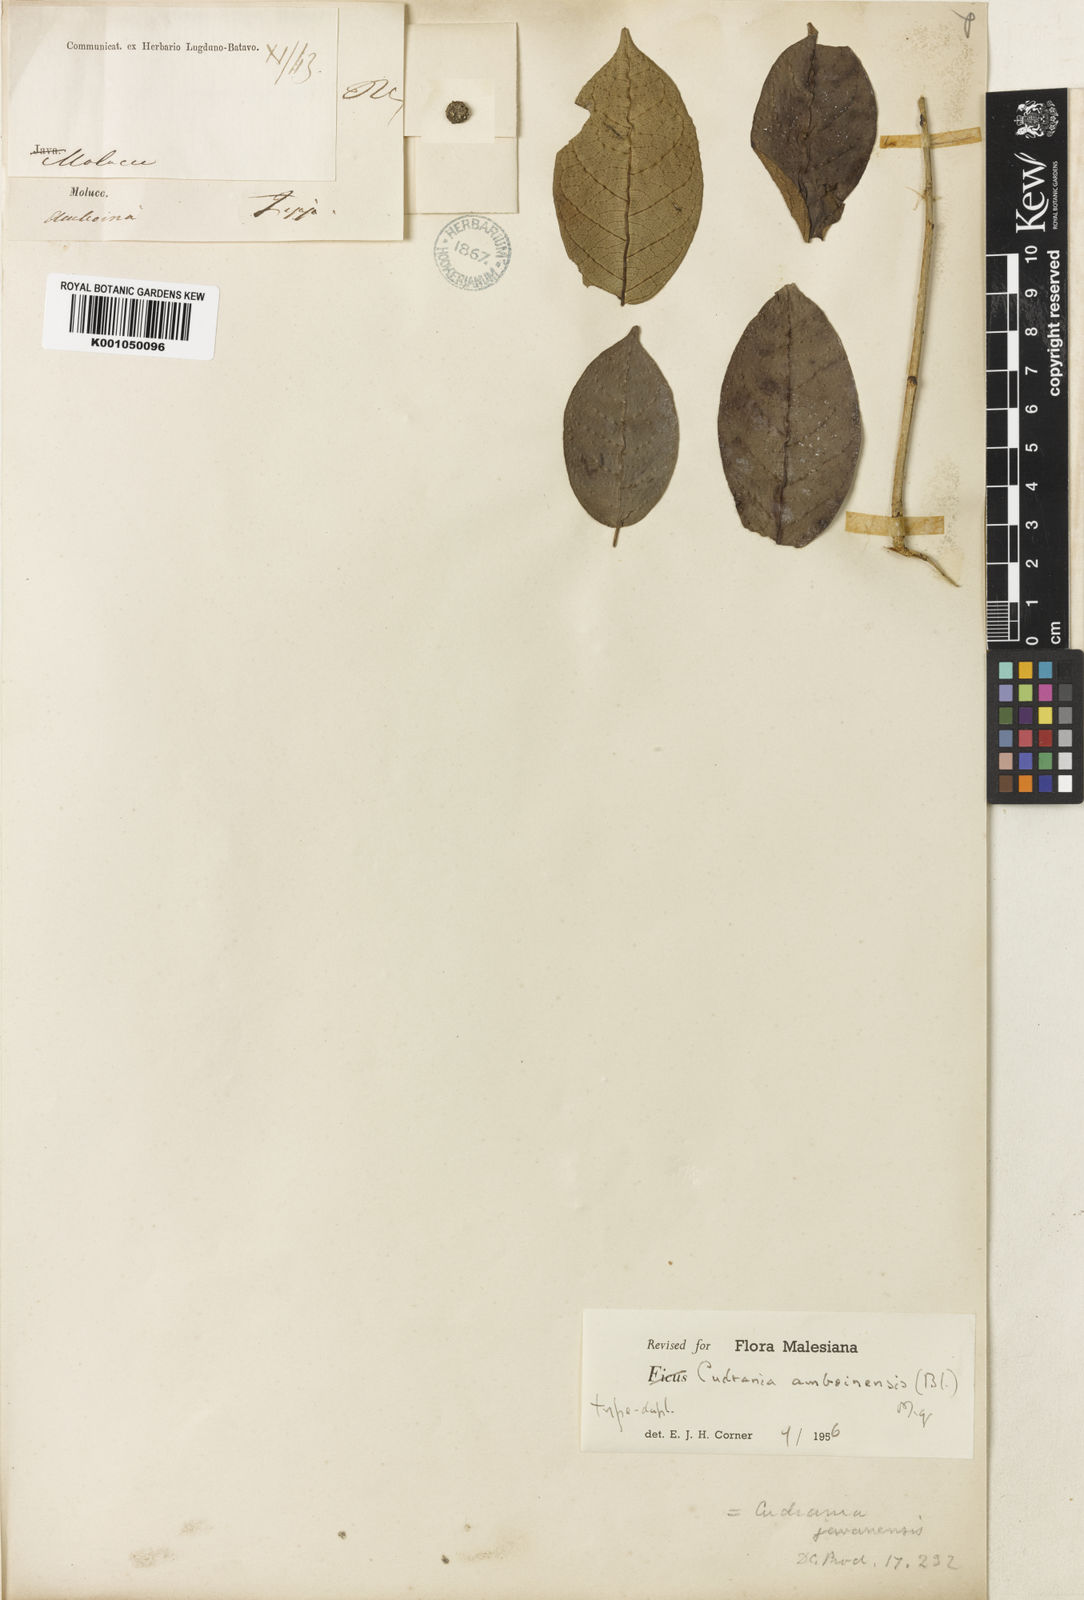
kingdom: Plantae
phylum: Tracheophyta
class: Magnoliopsida
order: Rosales
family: Moraceae
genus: Maclura
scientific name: Maclura cochinchinensis
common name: Cockspurthorn
